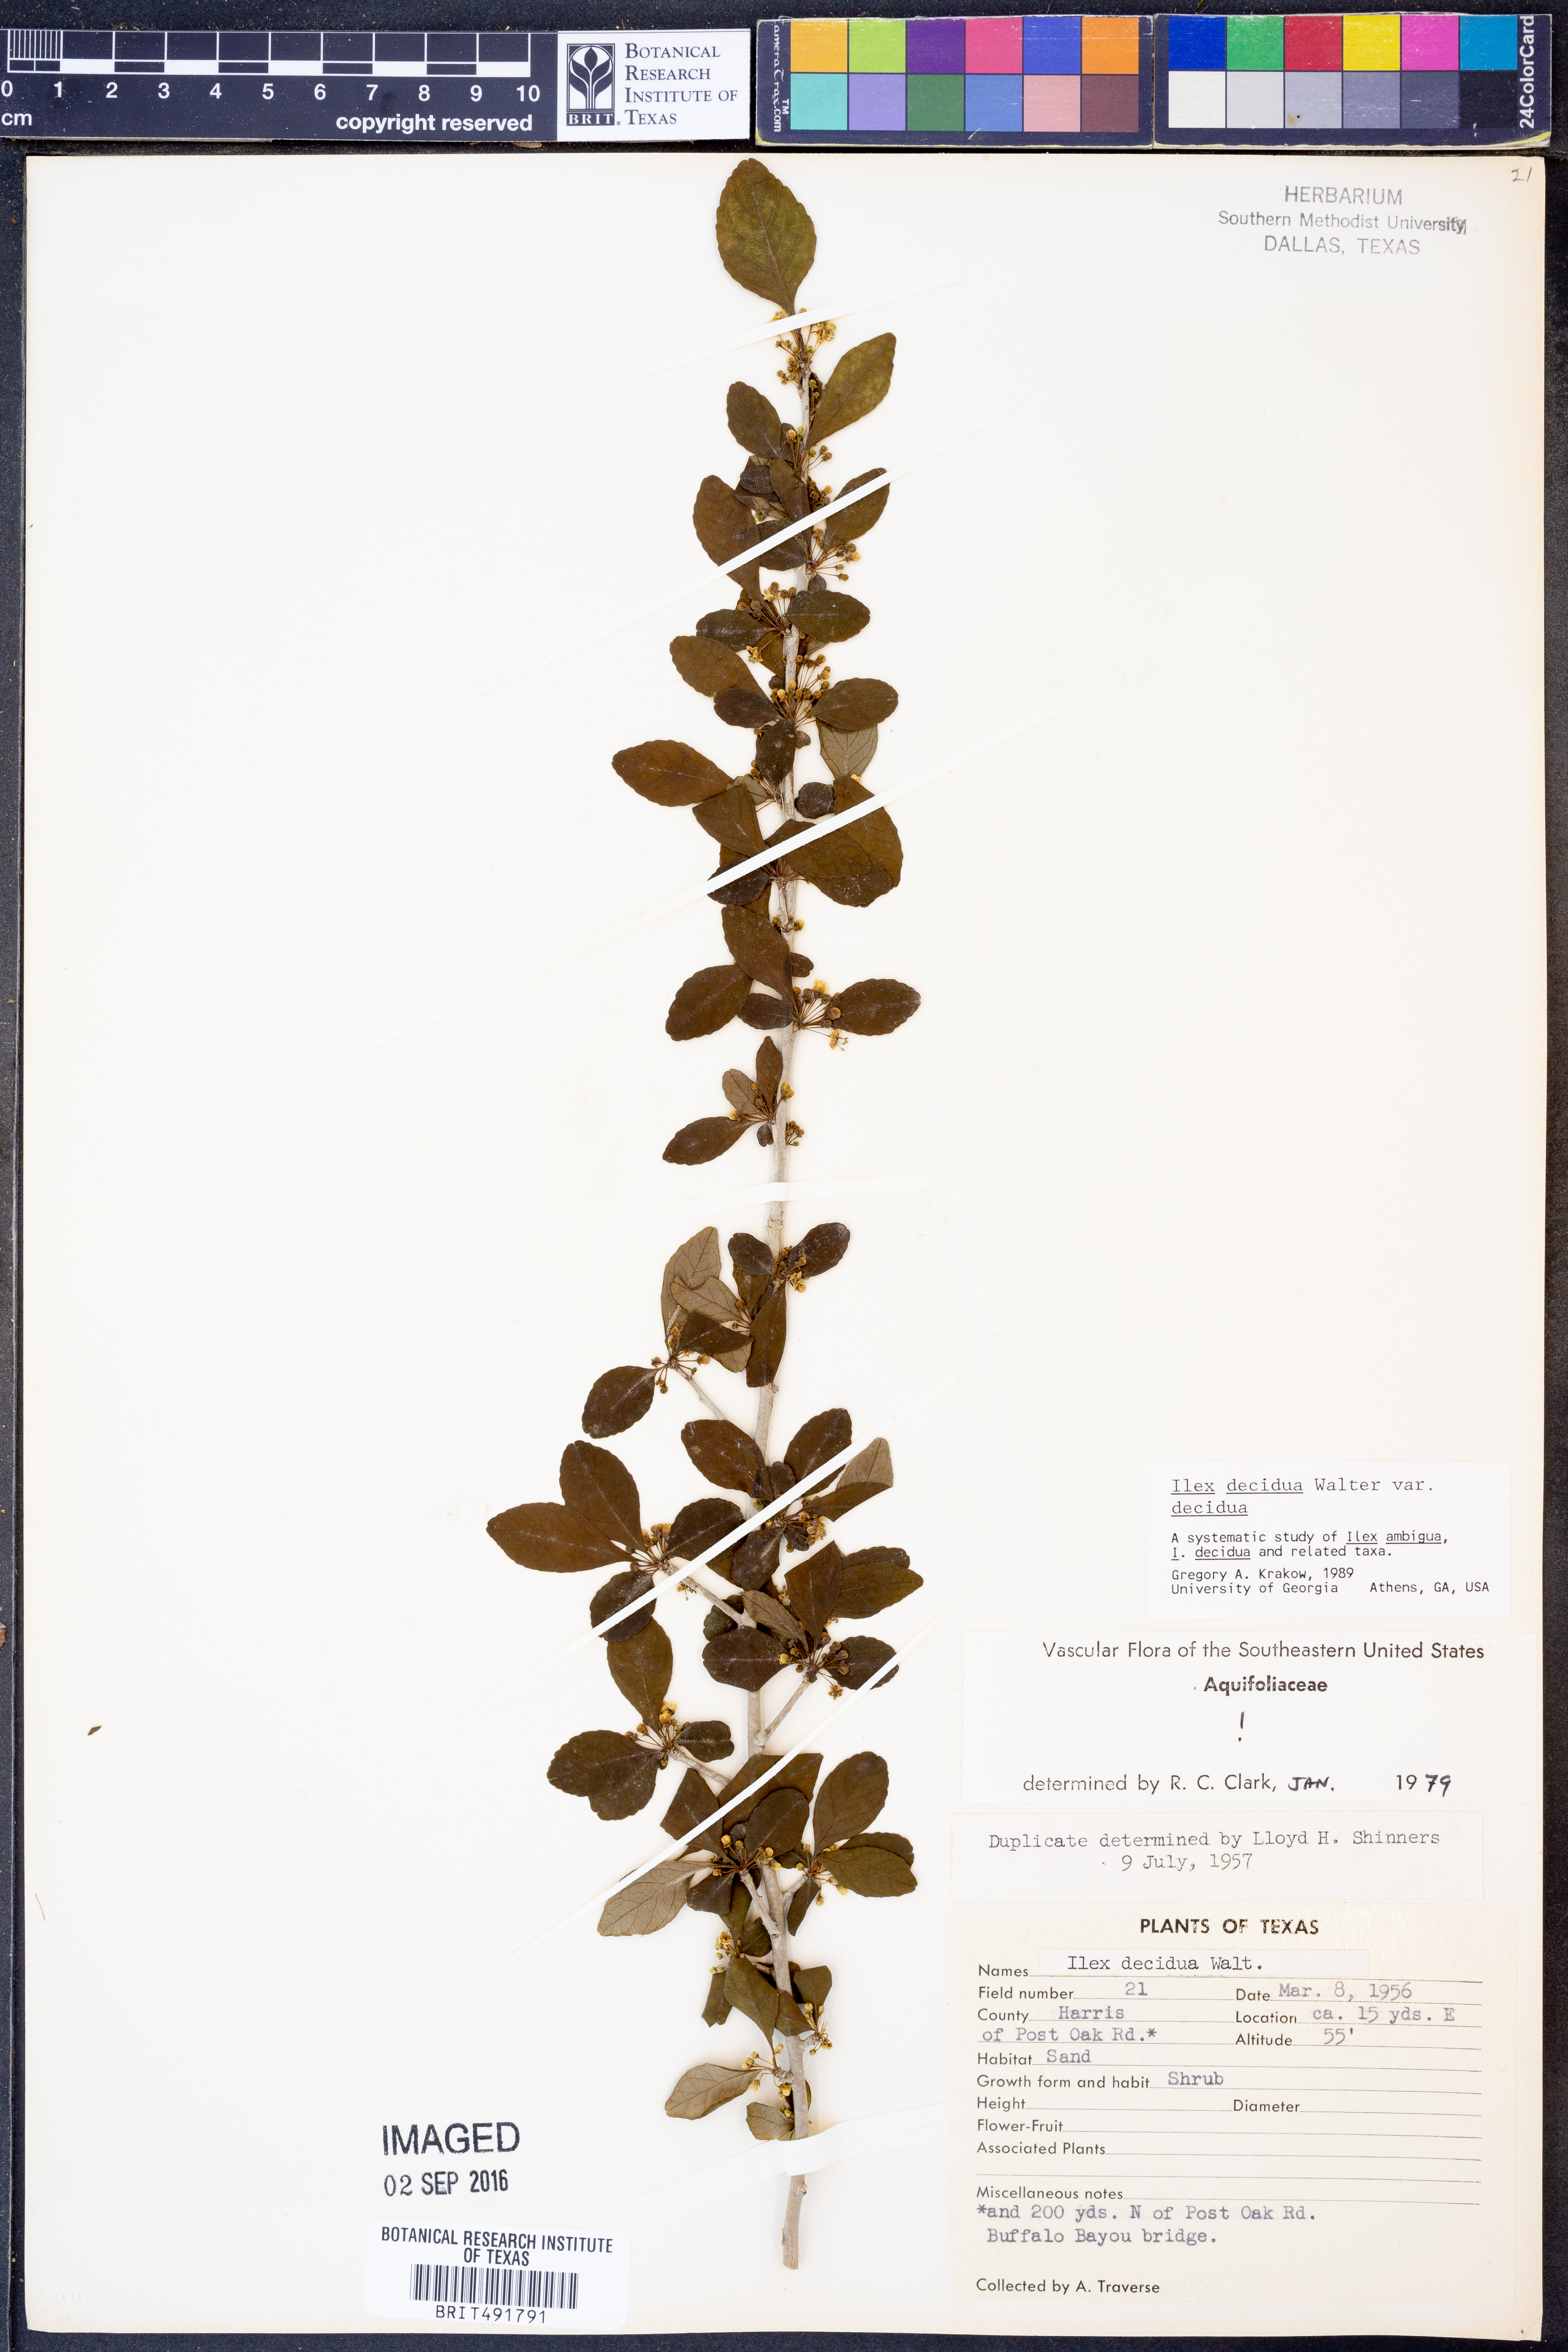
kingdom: Plantae
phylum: Tracheophyta
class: Magnoliopsida
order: Aquifoliales
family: Aquifoliaceae
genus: Ilex
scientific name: Ilex decidua
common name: Possum-haw
